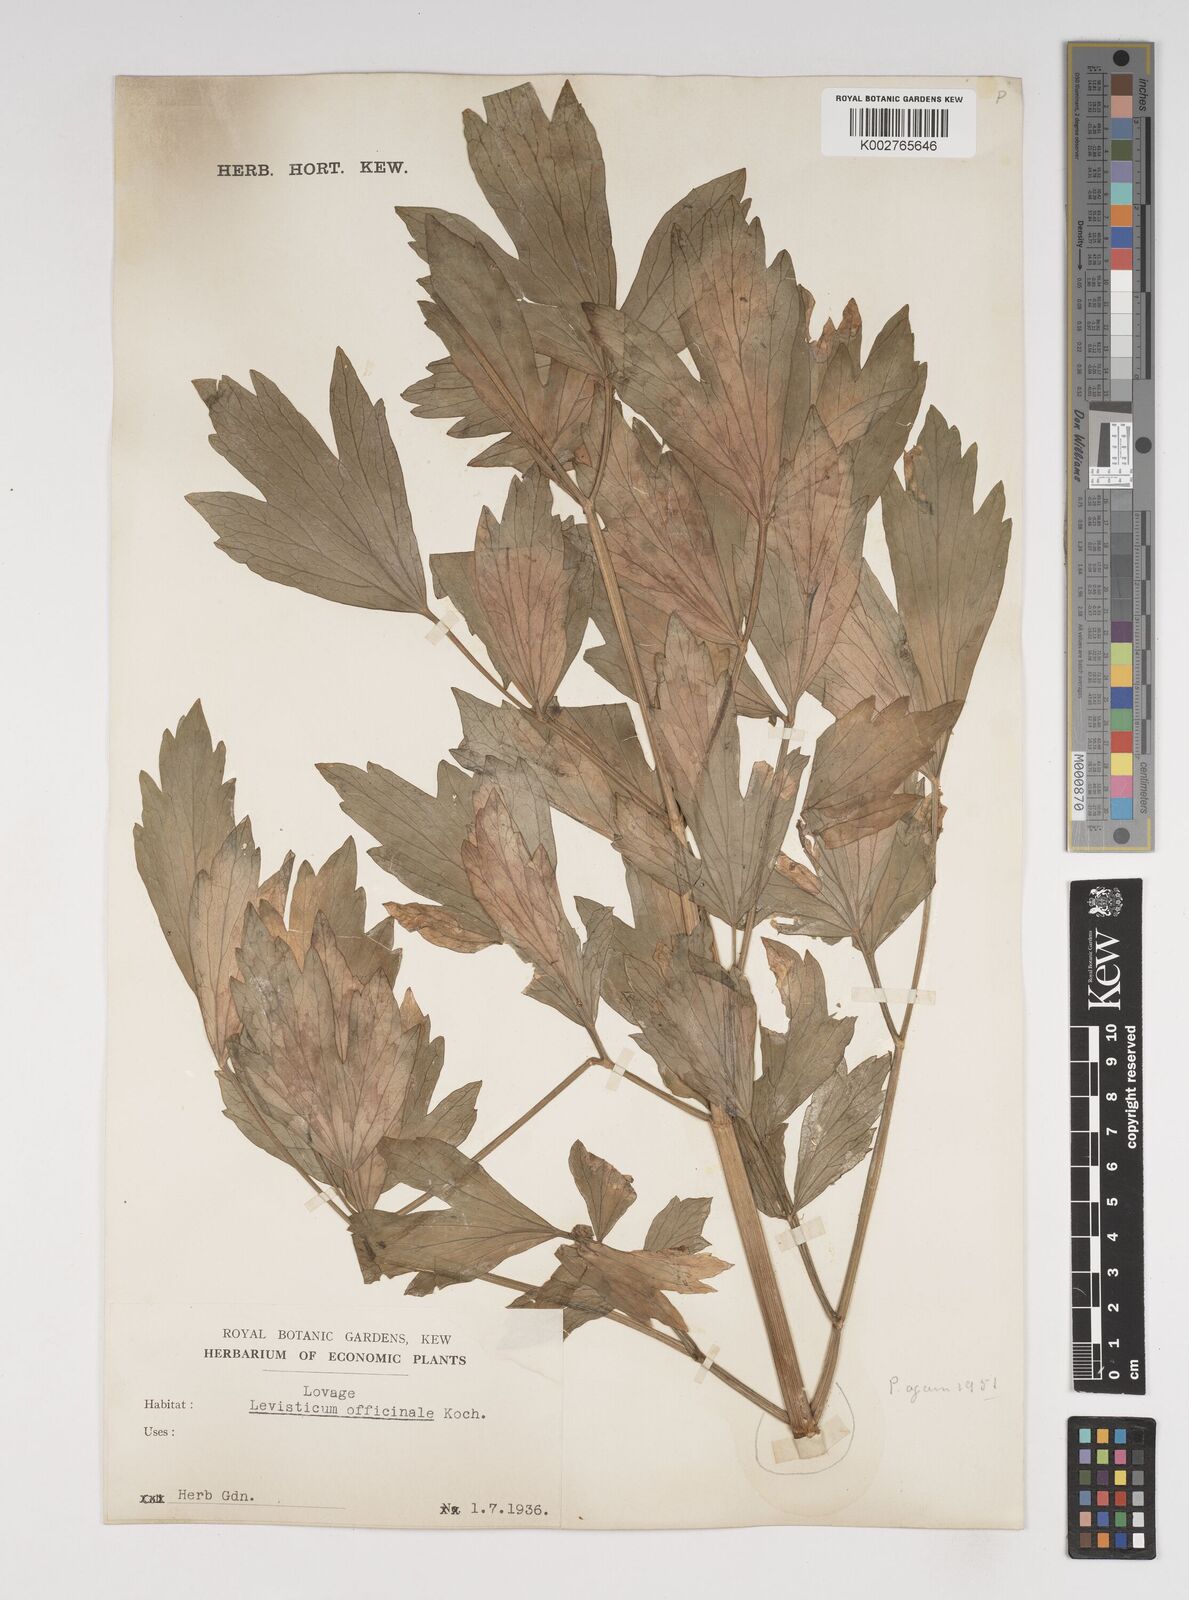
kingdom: Plantae
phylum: Tracheophyta
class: Magnoliopsida
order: Apiales
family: Apiaceae
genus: Levisticum
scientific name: Levisticum officinale
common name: Lovage
